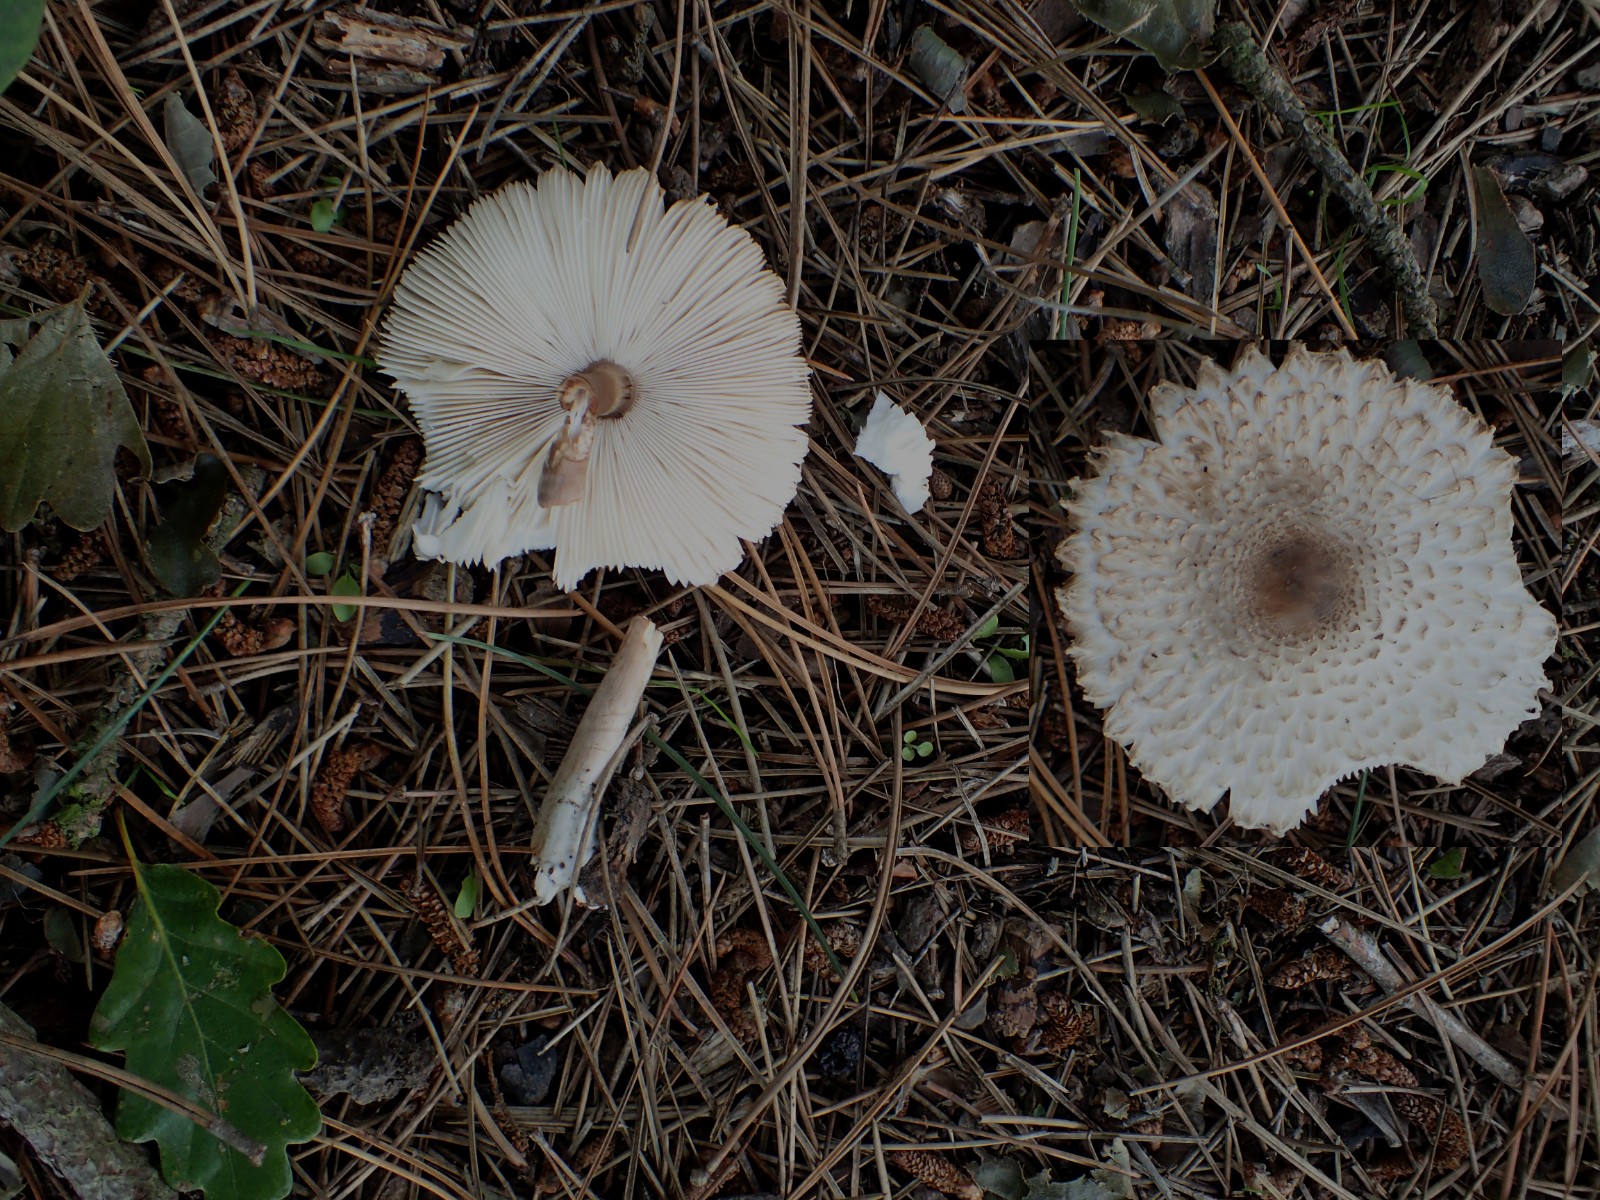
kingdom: Fungi
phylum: Basidiomycota
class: Agaricomycetes
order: Agaricales
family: Agaricaceae
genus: Leucoagaricus
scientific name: Leucoagaricus nympharum
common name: gran-silkehat
